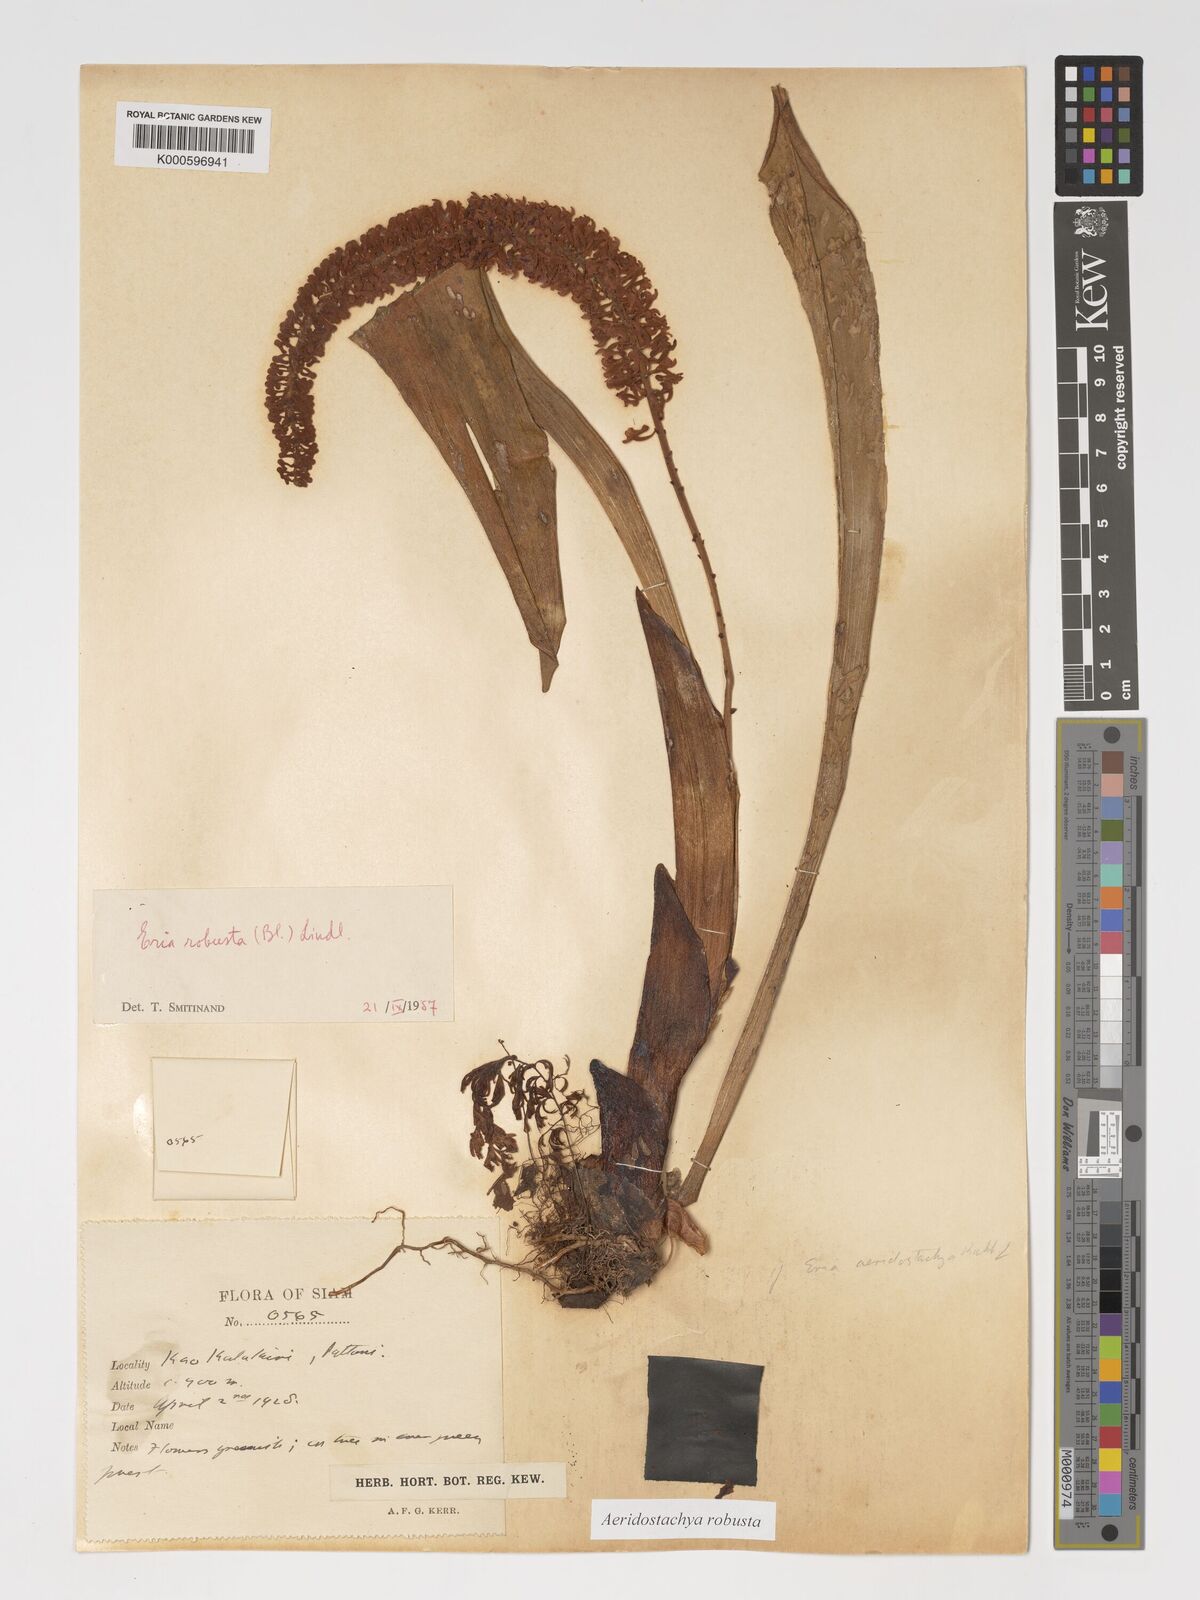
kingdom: Plantae
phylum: Tracheophyta
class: Liliopsida
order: Asparagales
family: Orchidaceae
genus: Aeridostachya
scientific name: Aeridostachya robusta
